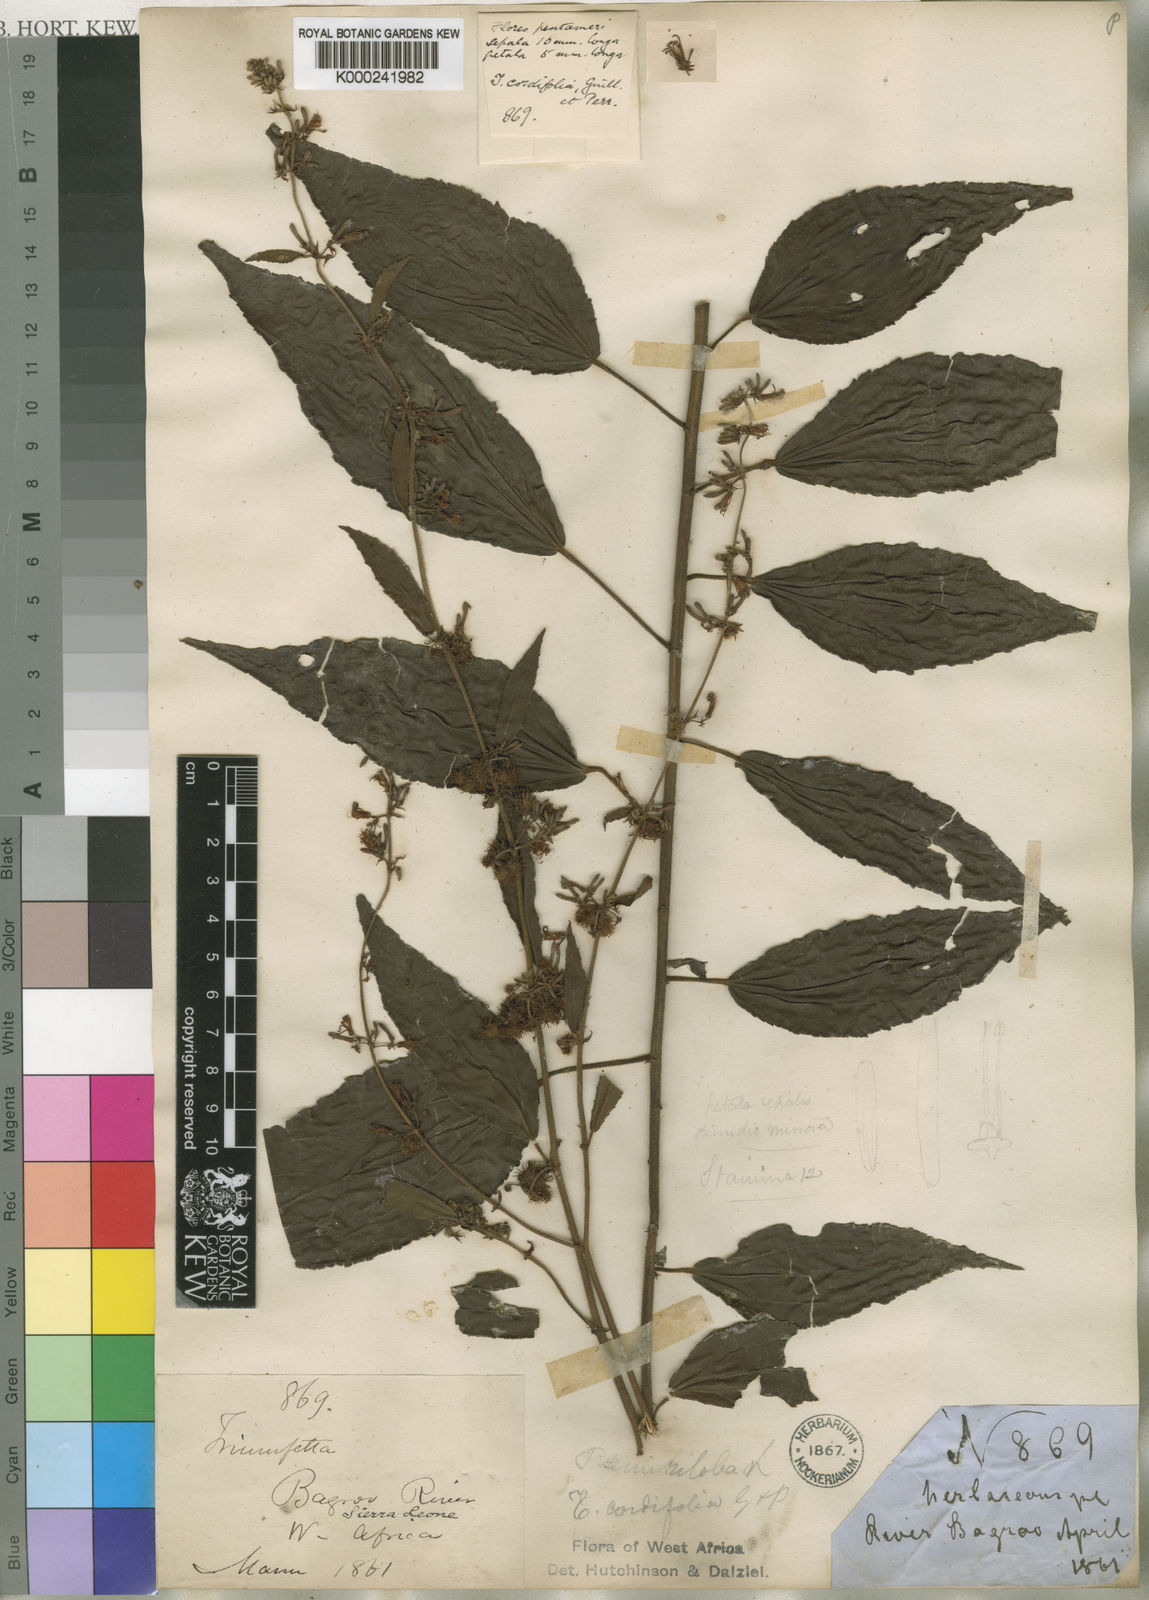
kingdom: Plantae
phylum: Tracheophyta
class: Magnoliopsida
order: Malvales
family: Malvaceae
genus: Triumfetta
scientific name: Triumfetta
